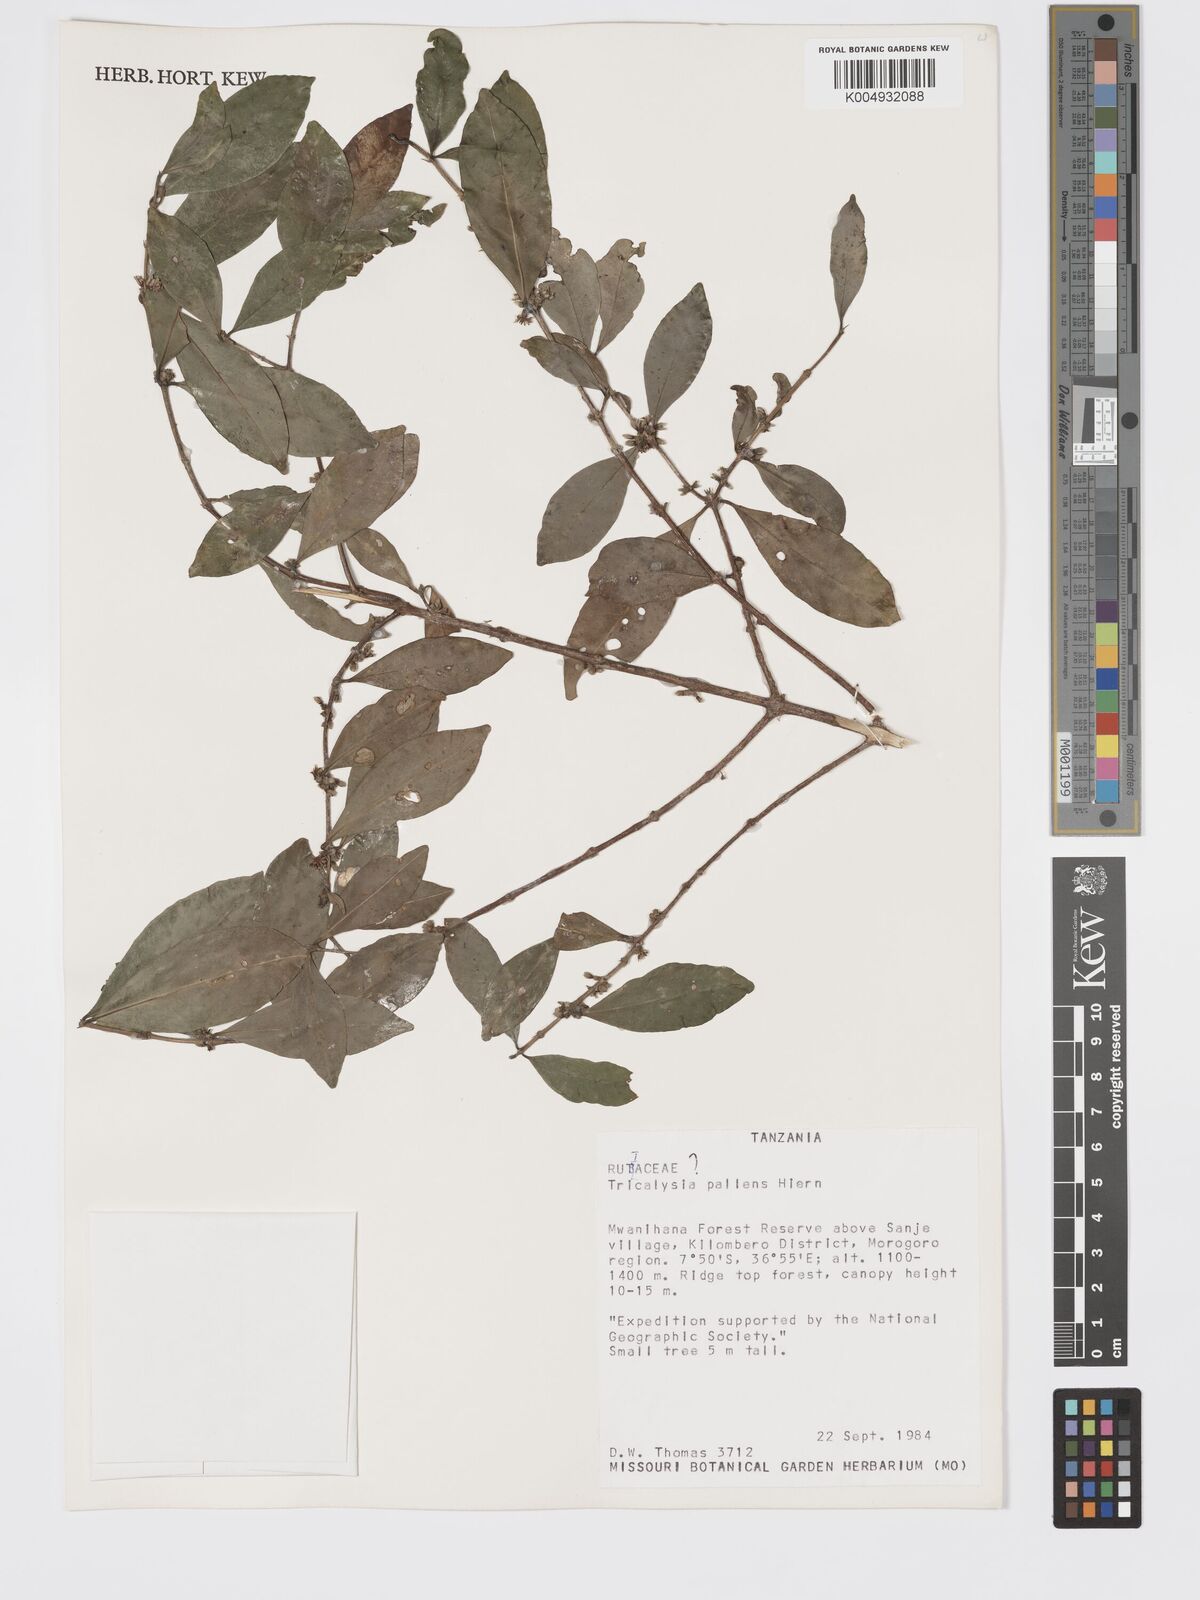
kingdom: Plantae
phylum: Tracheophyta
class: Magnoliopsida
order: Gentianales
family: Rubiaceae
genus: Tricalysia
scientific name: Tricalysia pallens
